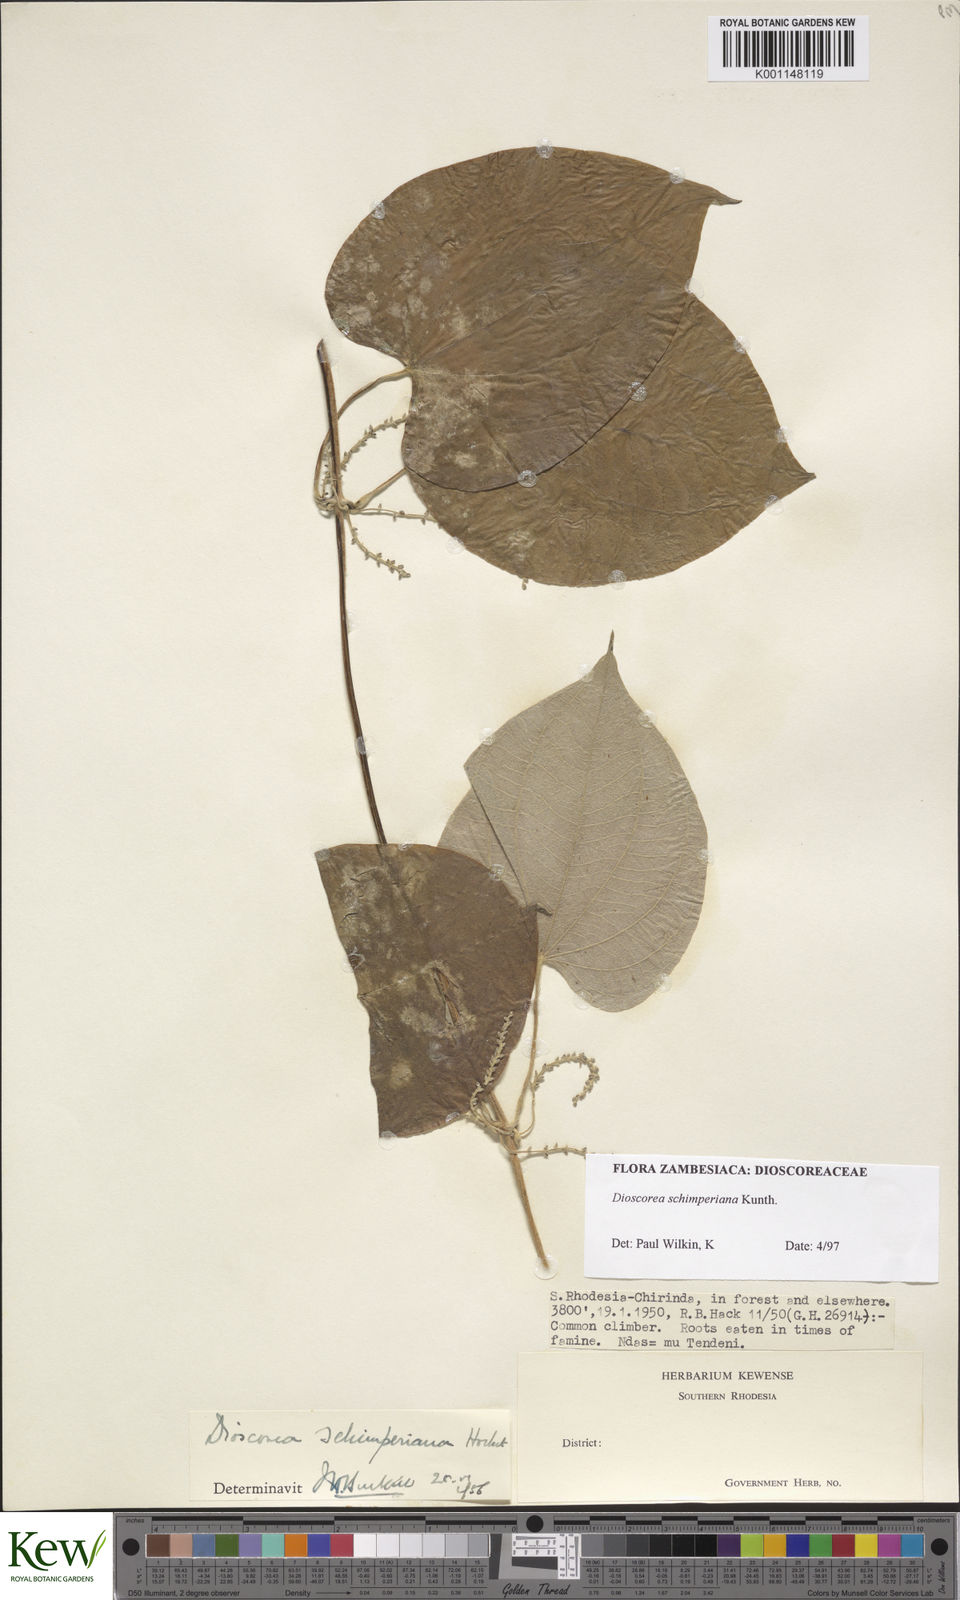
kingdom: Plantae
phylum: Tracheophyta
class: Liliopsida
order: Dioscoreales
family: Dioscoreaceae
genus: Dioscorea
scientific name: Dioscorea schimperiana
